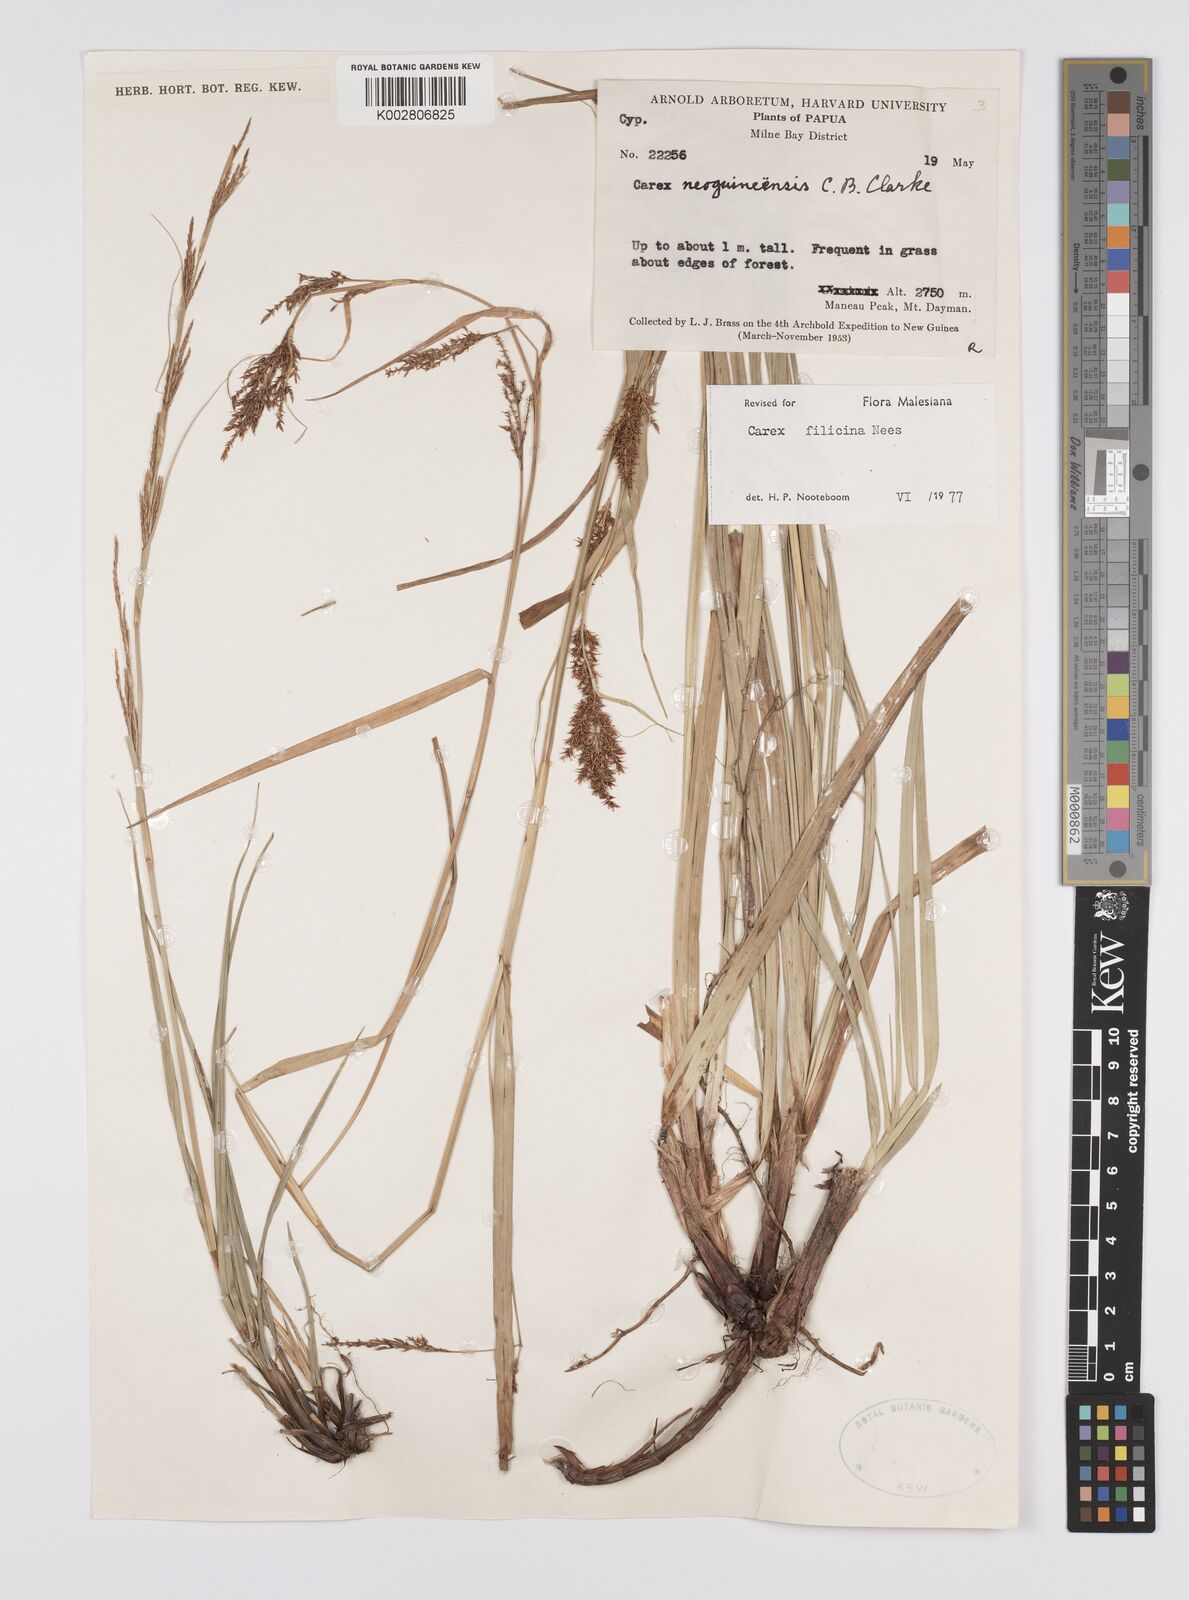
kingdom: Plantae
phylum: Tracheophyta
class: Liliopsida
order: Poales
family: Cyperaceae
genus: Carex
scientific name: Carex filicina
